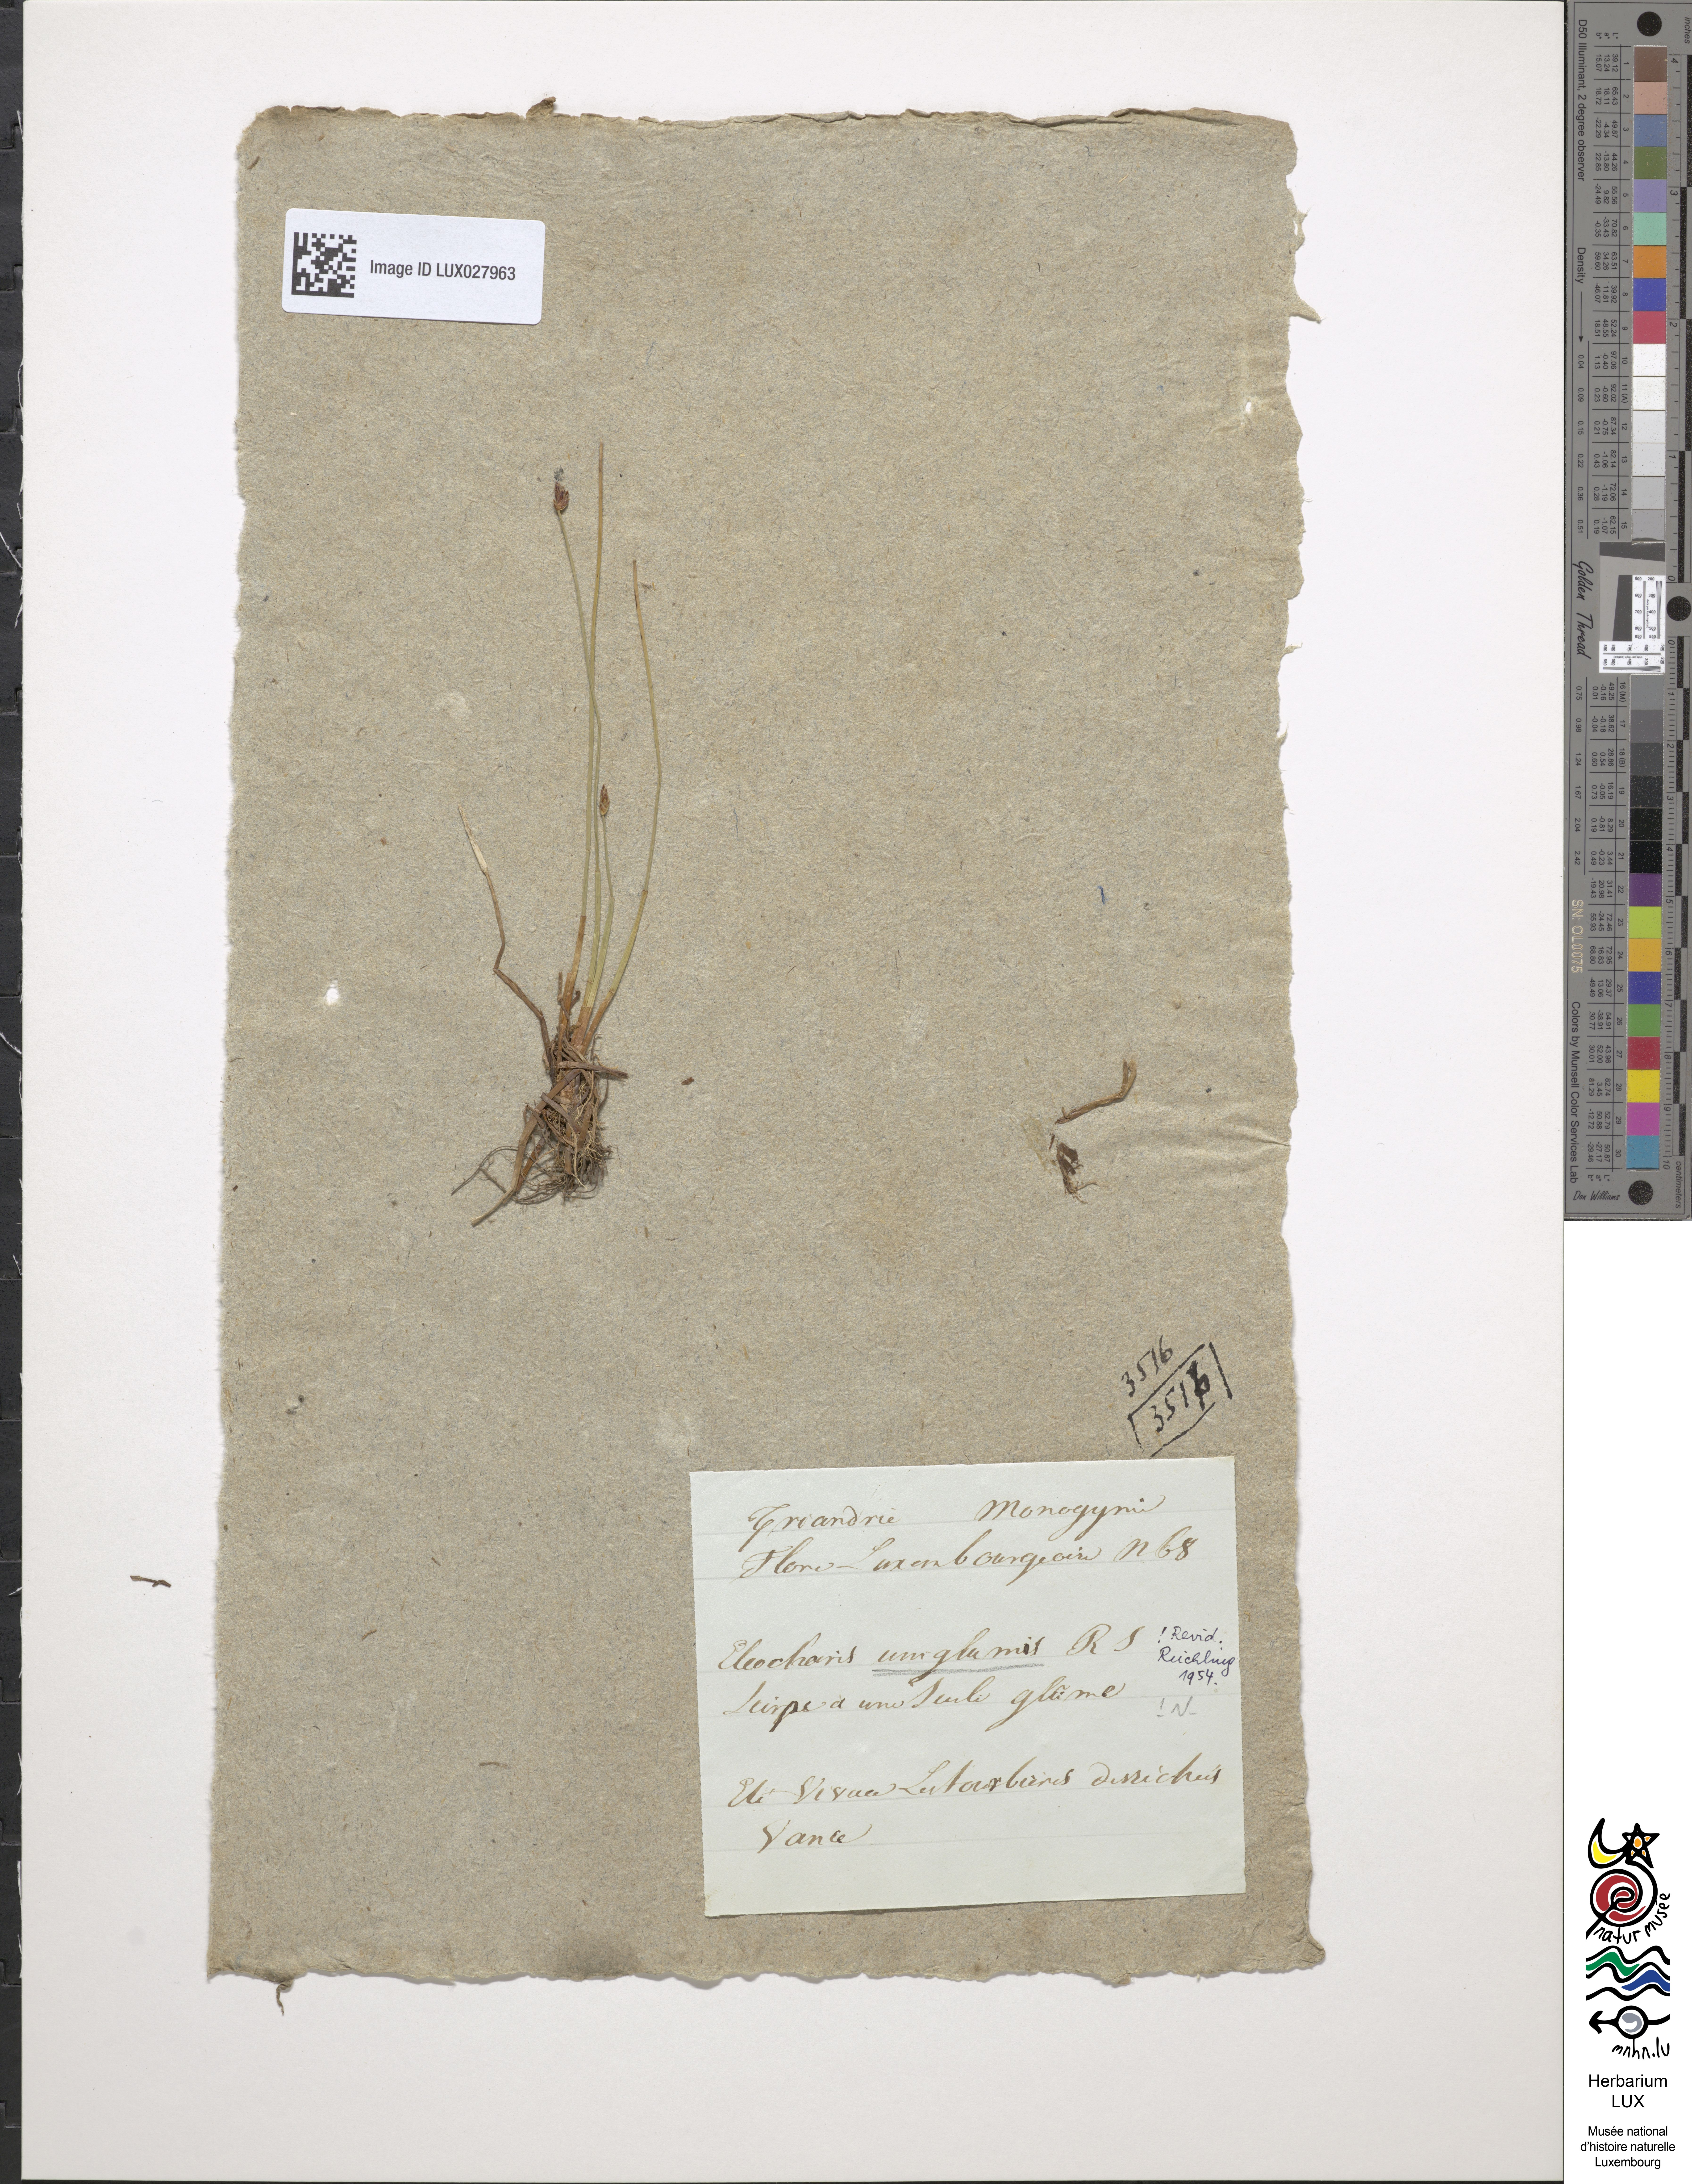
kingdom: Plantae
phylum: Tracheophyta
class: Liliopsida
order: Poales
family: Cyperaceae
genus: Eleocharis
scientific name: Eleocharis uniglumis
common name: Slender spike-rush
